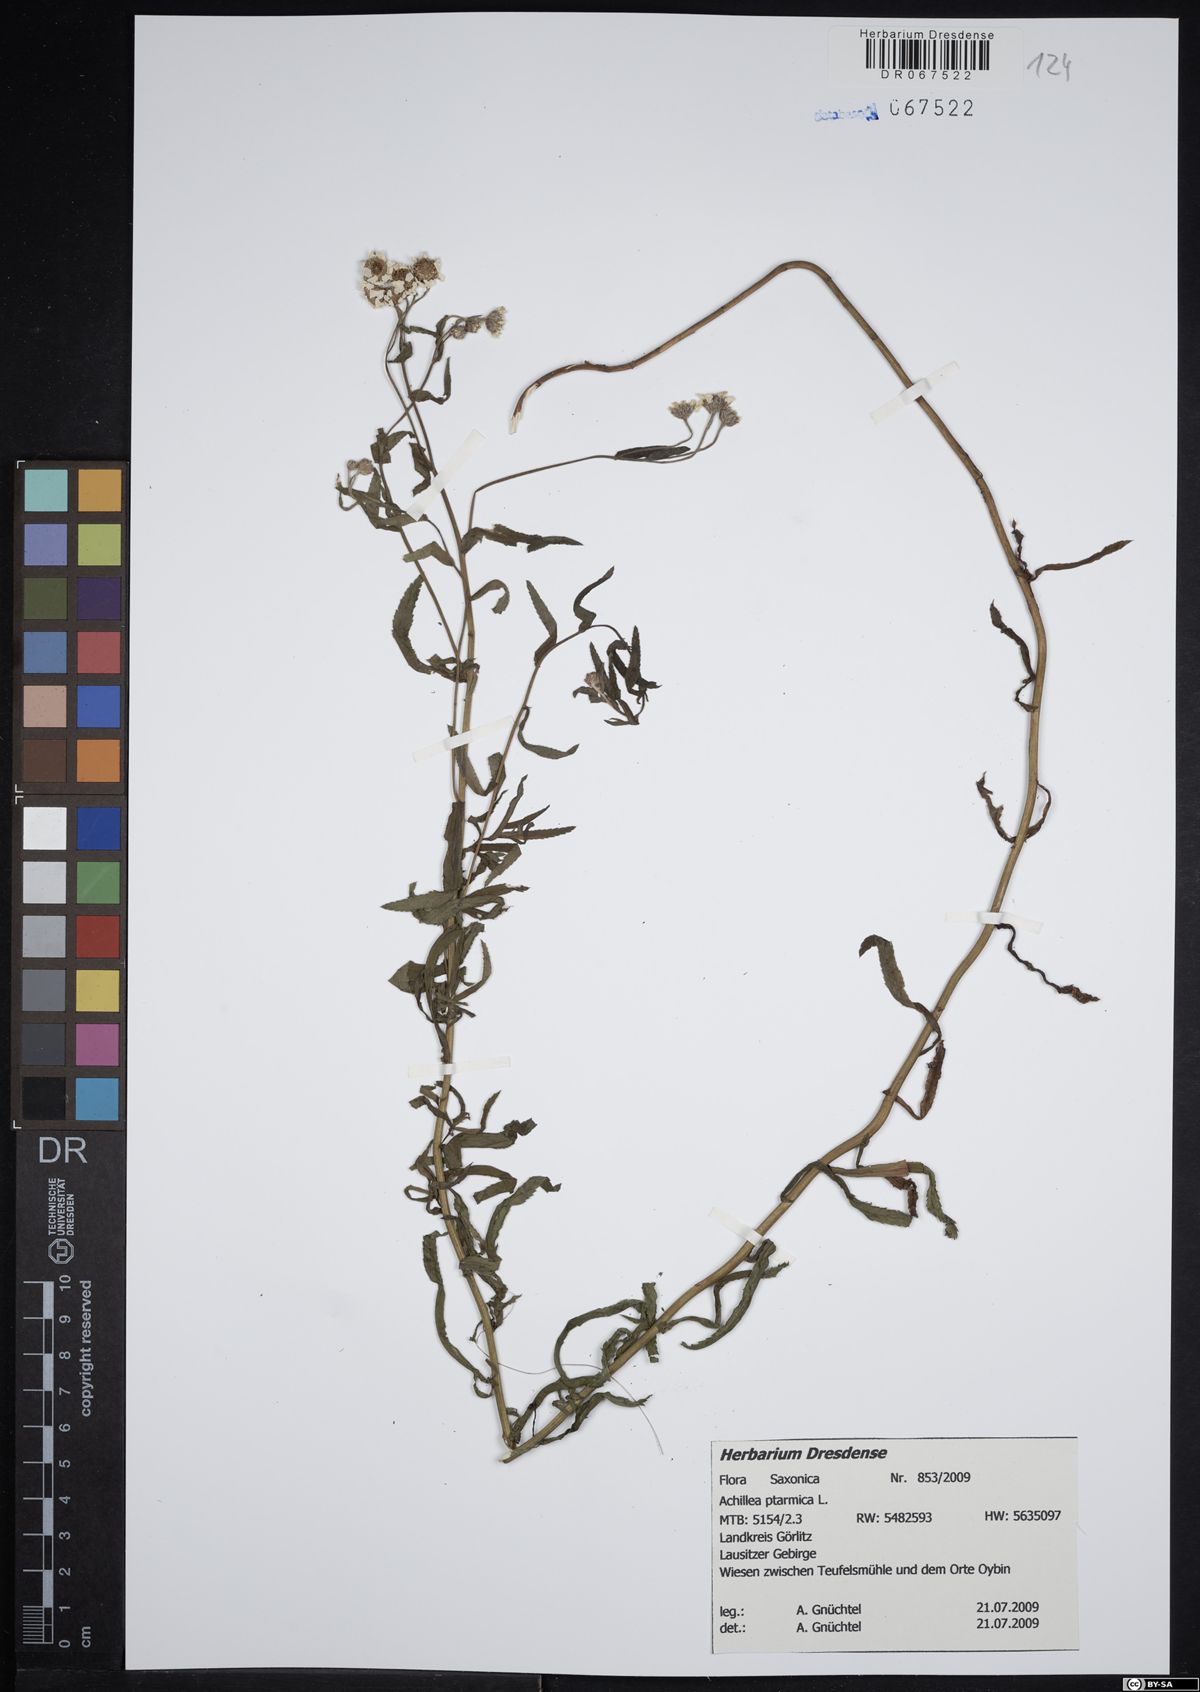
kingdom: Plantae
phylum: Tracheophyta
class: Magnoliopsida
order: Asterales
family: Asteraceae
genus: Achillea
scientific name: Achillea ptarmica
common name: Sneezeweed
